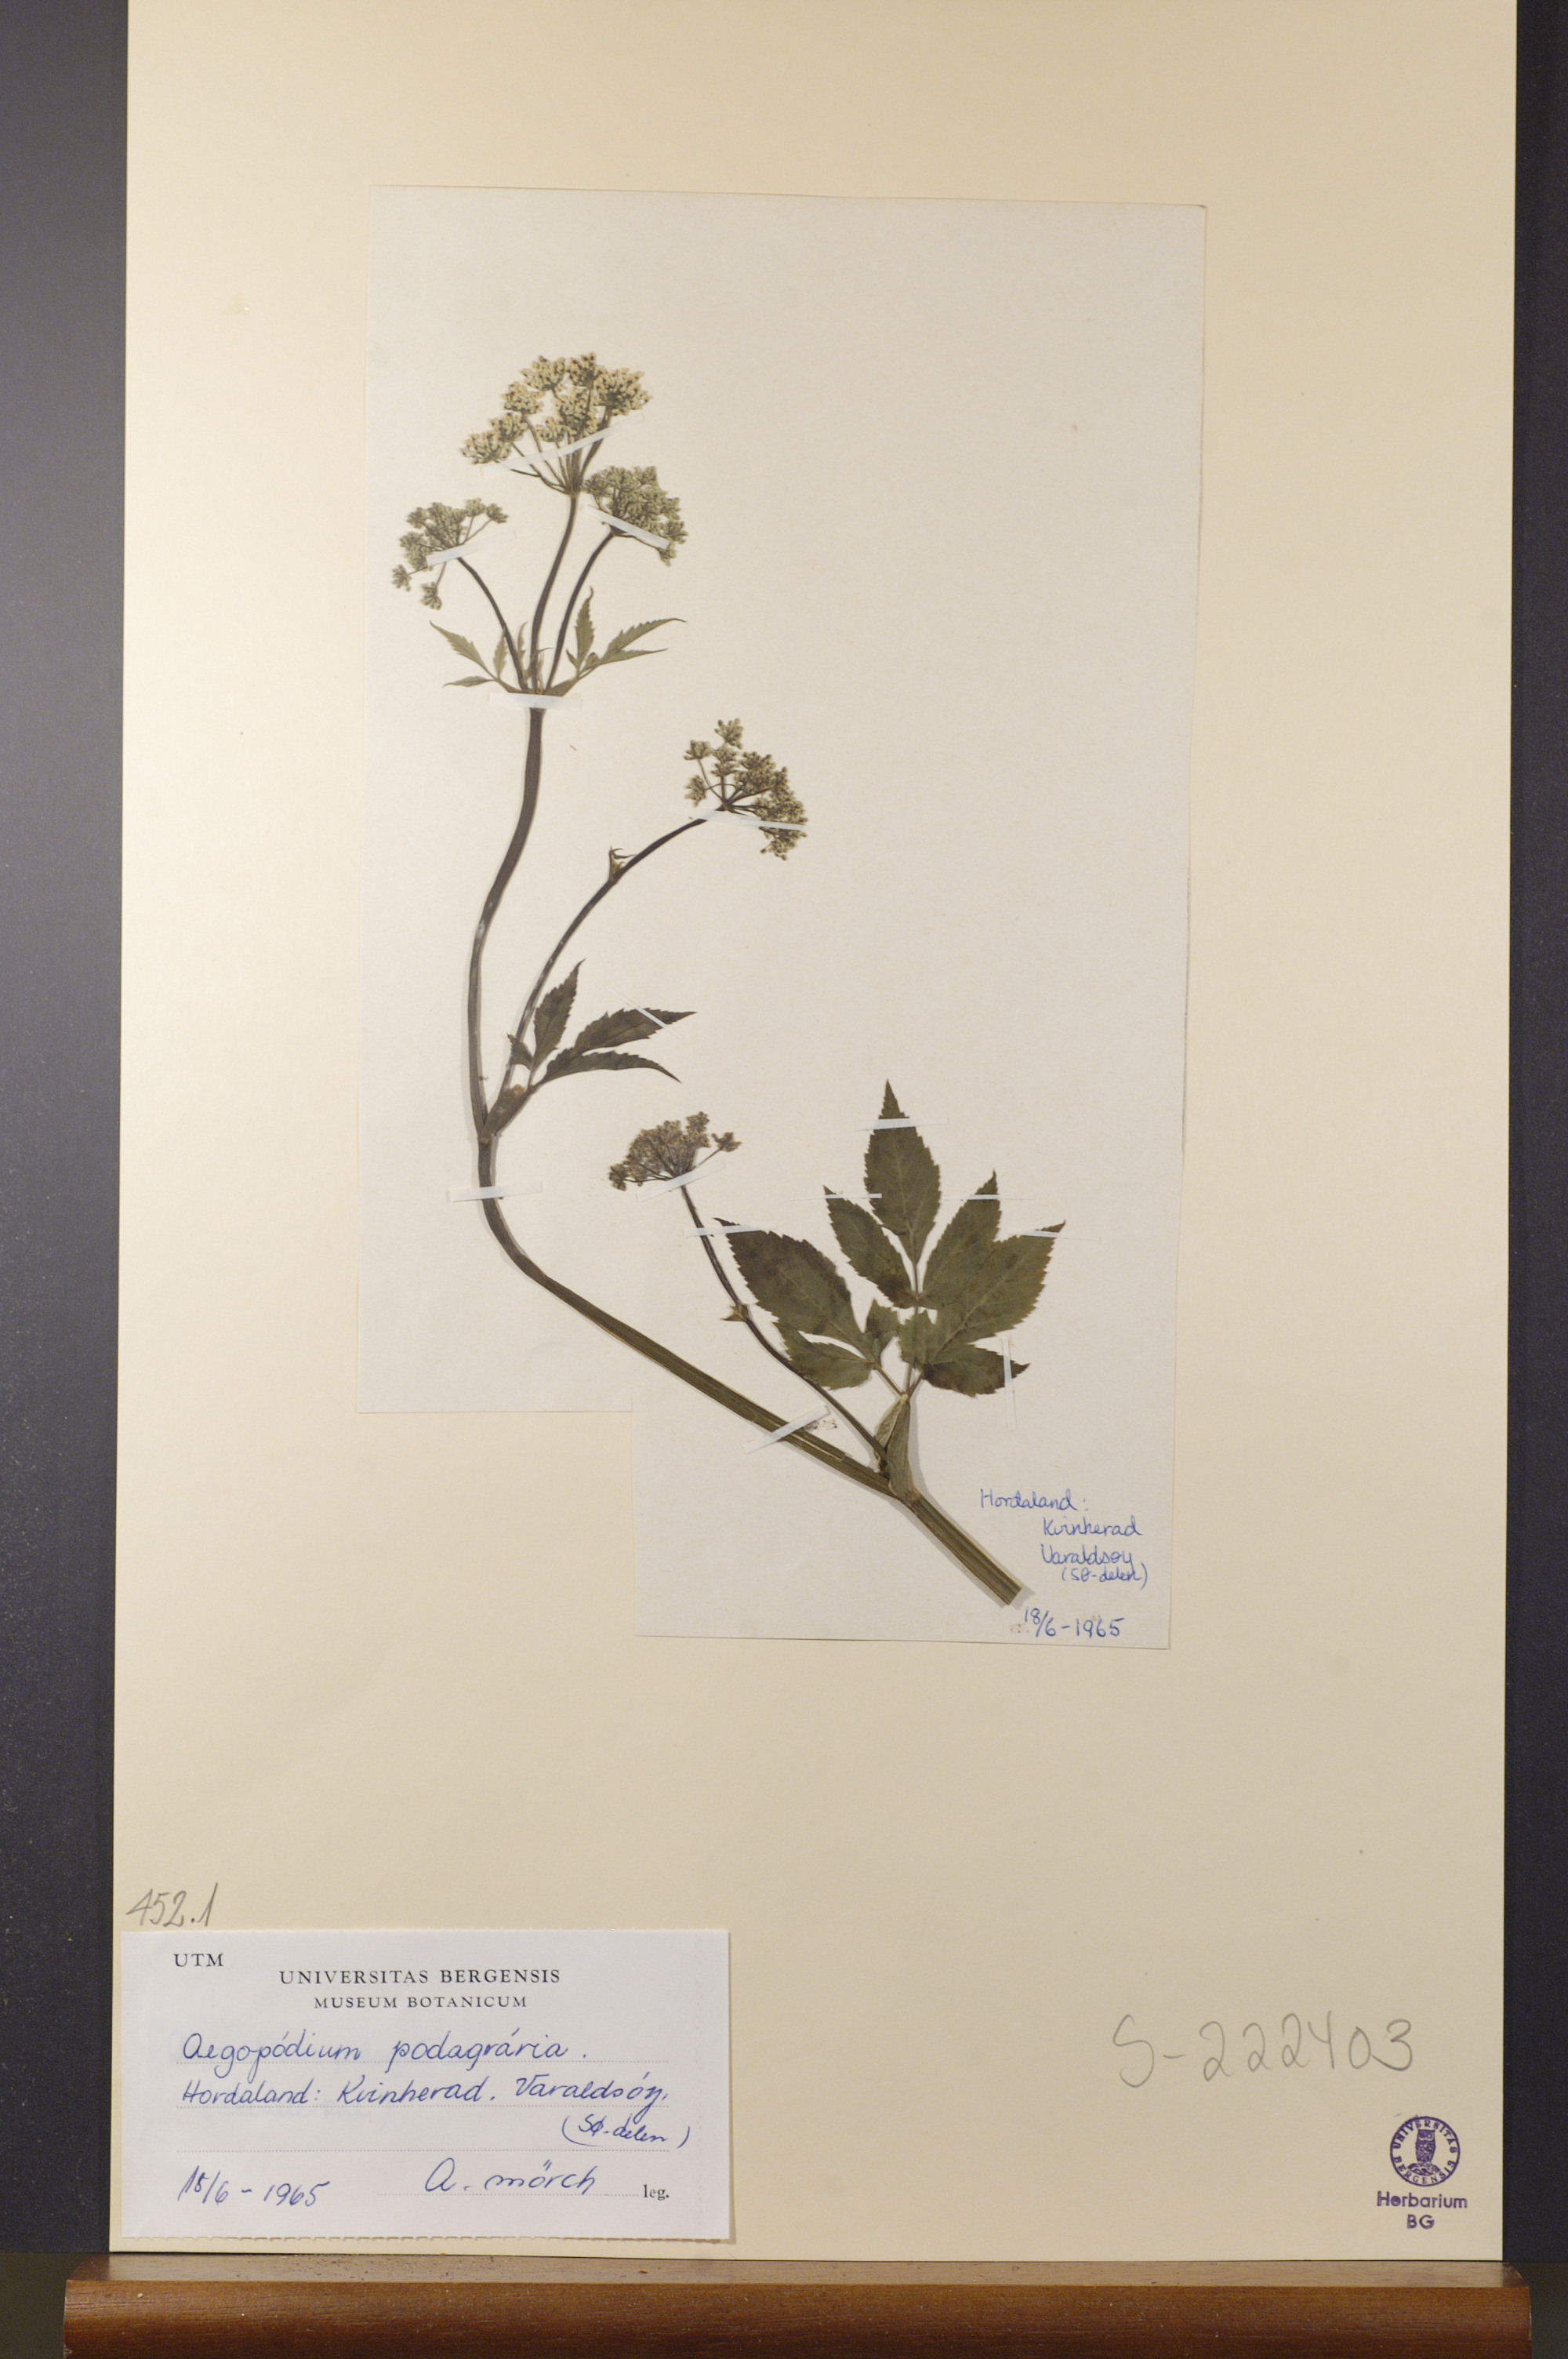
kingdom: Plantae
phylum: Tracheophyta
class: Magnoliopsida
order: Apiales
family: Apiaceae
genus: Aegopodium
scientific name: Aegopodium podagraria
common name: Ground-elder
